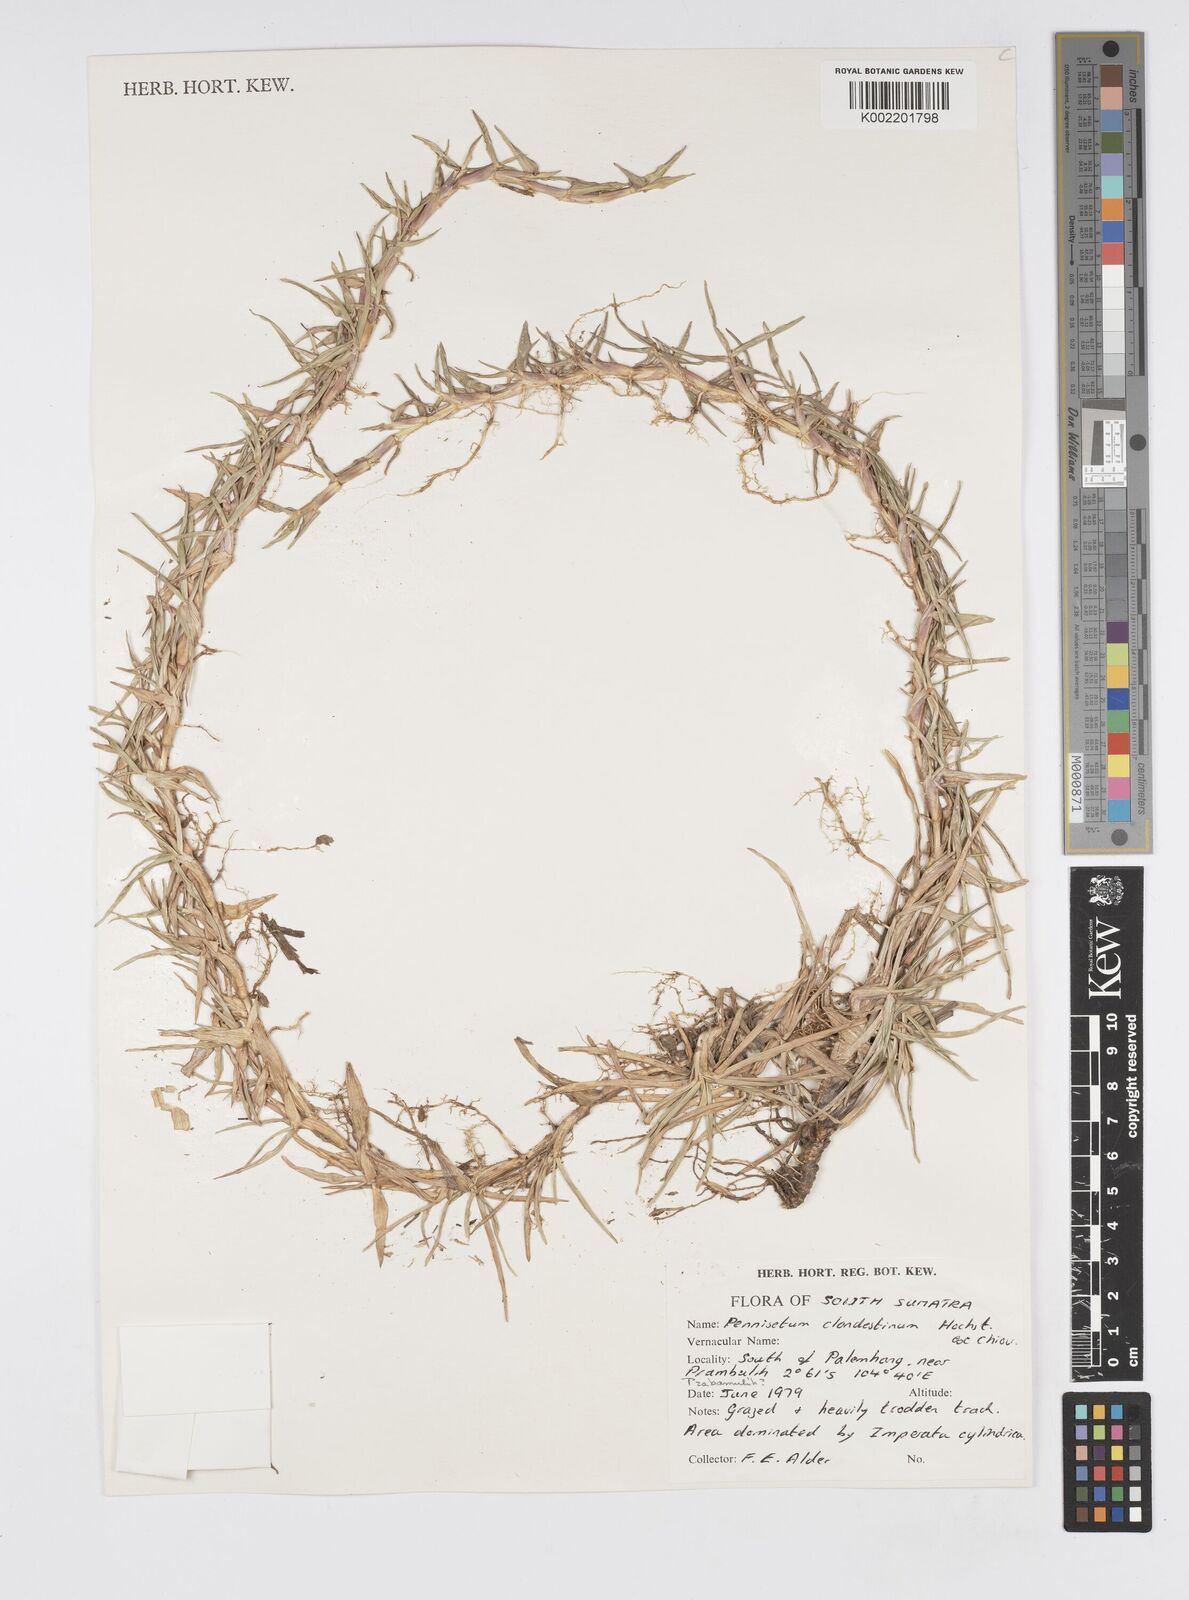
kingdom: Plantae
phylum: Tracheophyta
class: Liliopsida
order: Poales
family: Poaceae
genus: Cenchrus
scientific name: Cenchrus clandestinus
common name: Kikuyugrass
